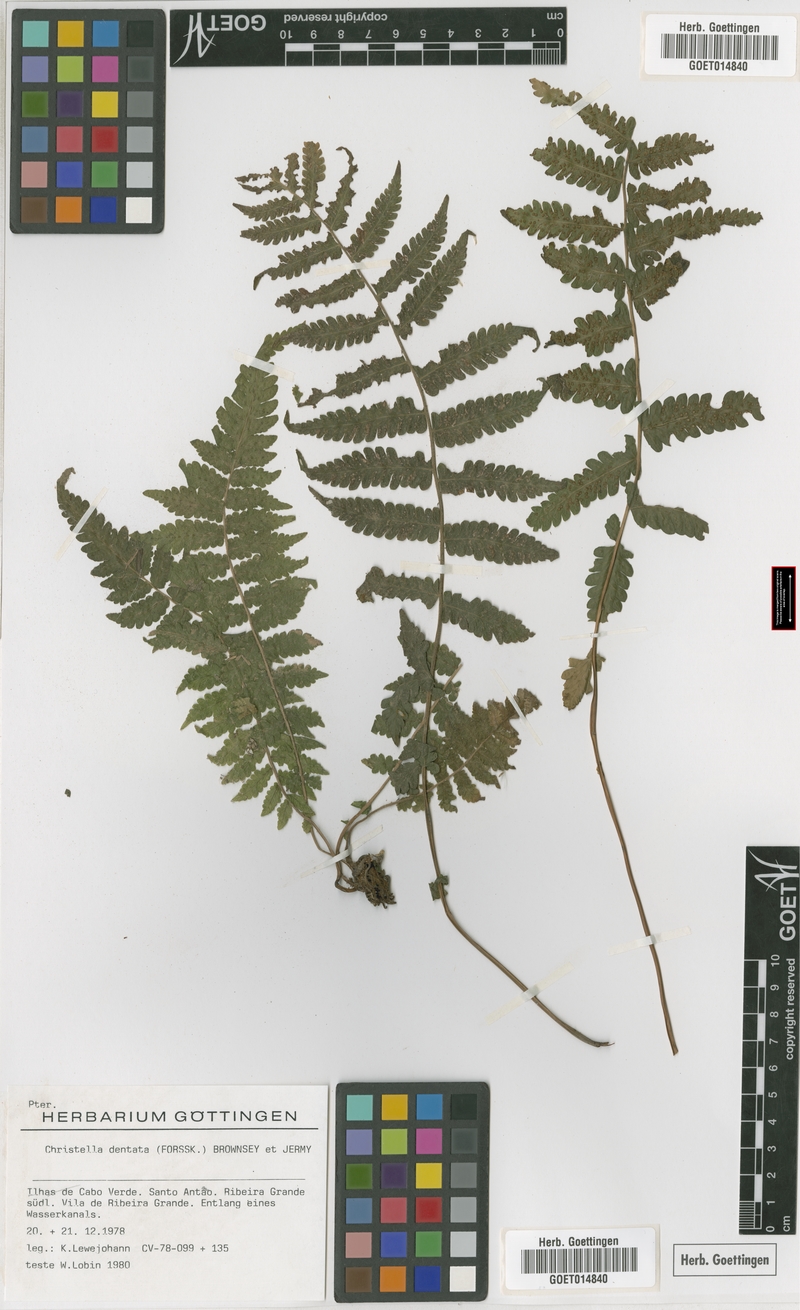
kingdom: Plantae
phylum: Tracheophyta
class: Polypodiopsida
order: Polypodiales
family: Thelypteridaceae
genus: Christella
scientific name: Christella dentata
